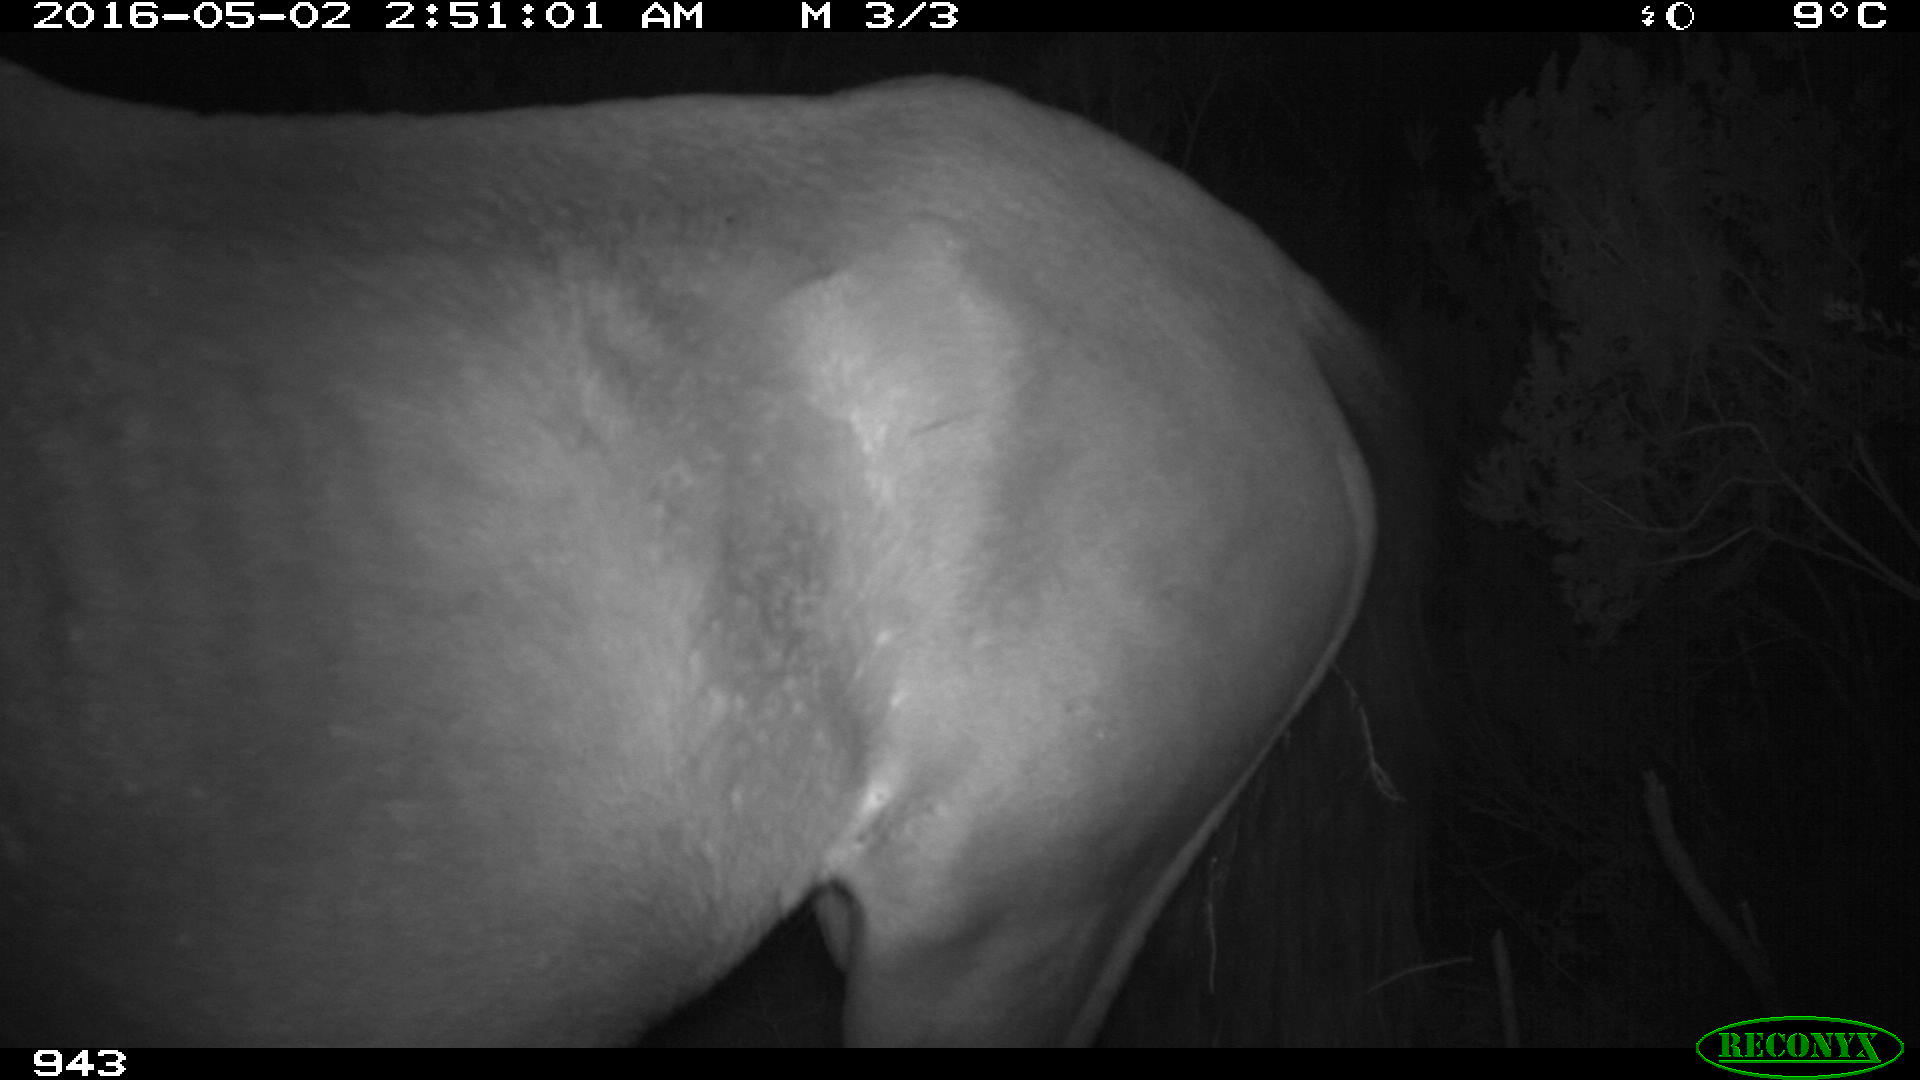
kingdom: Animalia
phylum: Chordata
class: Mammalia
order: Perissodactyla
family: Equidae
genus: Equus
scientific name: Equus caballus
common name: Horse
